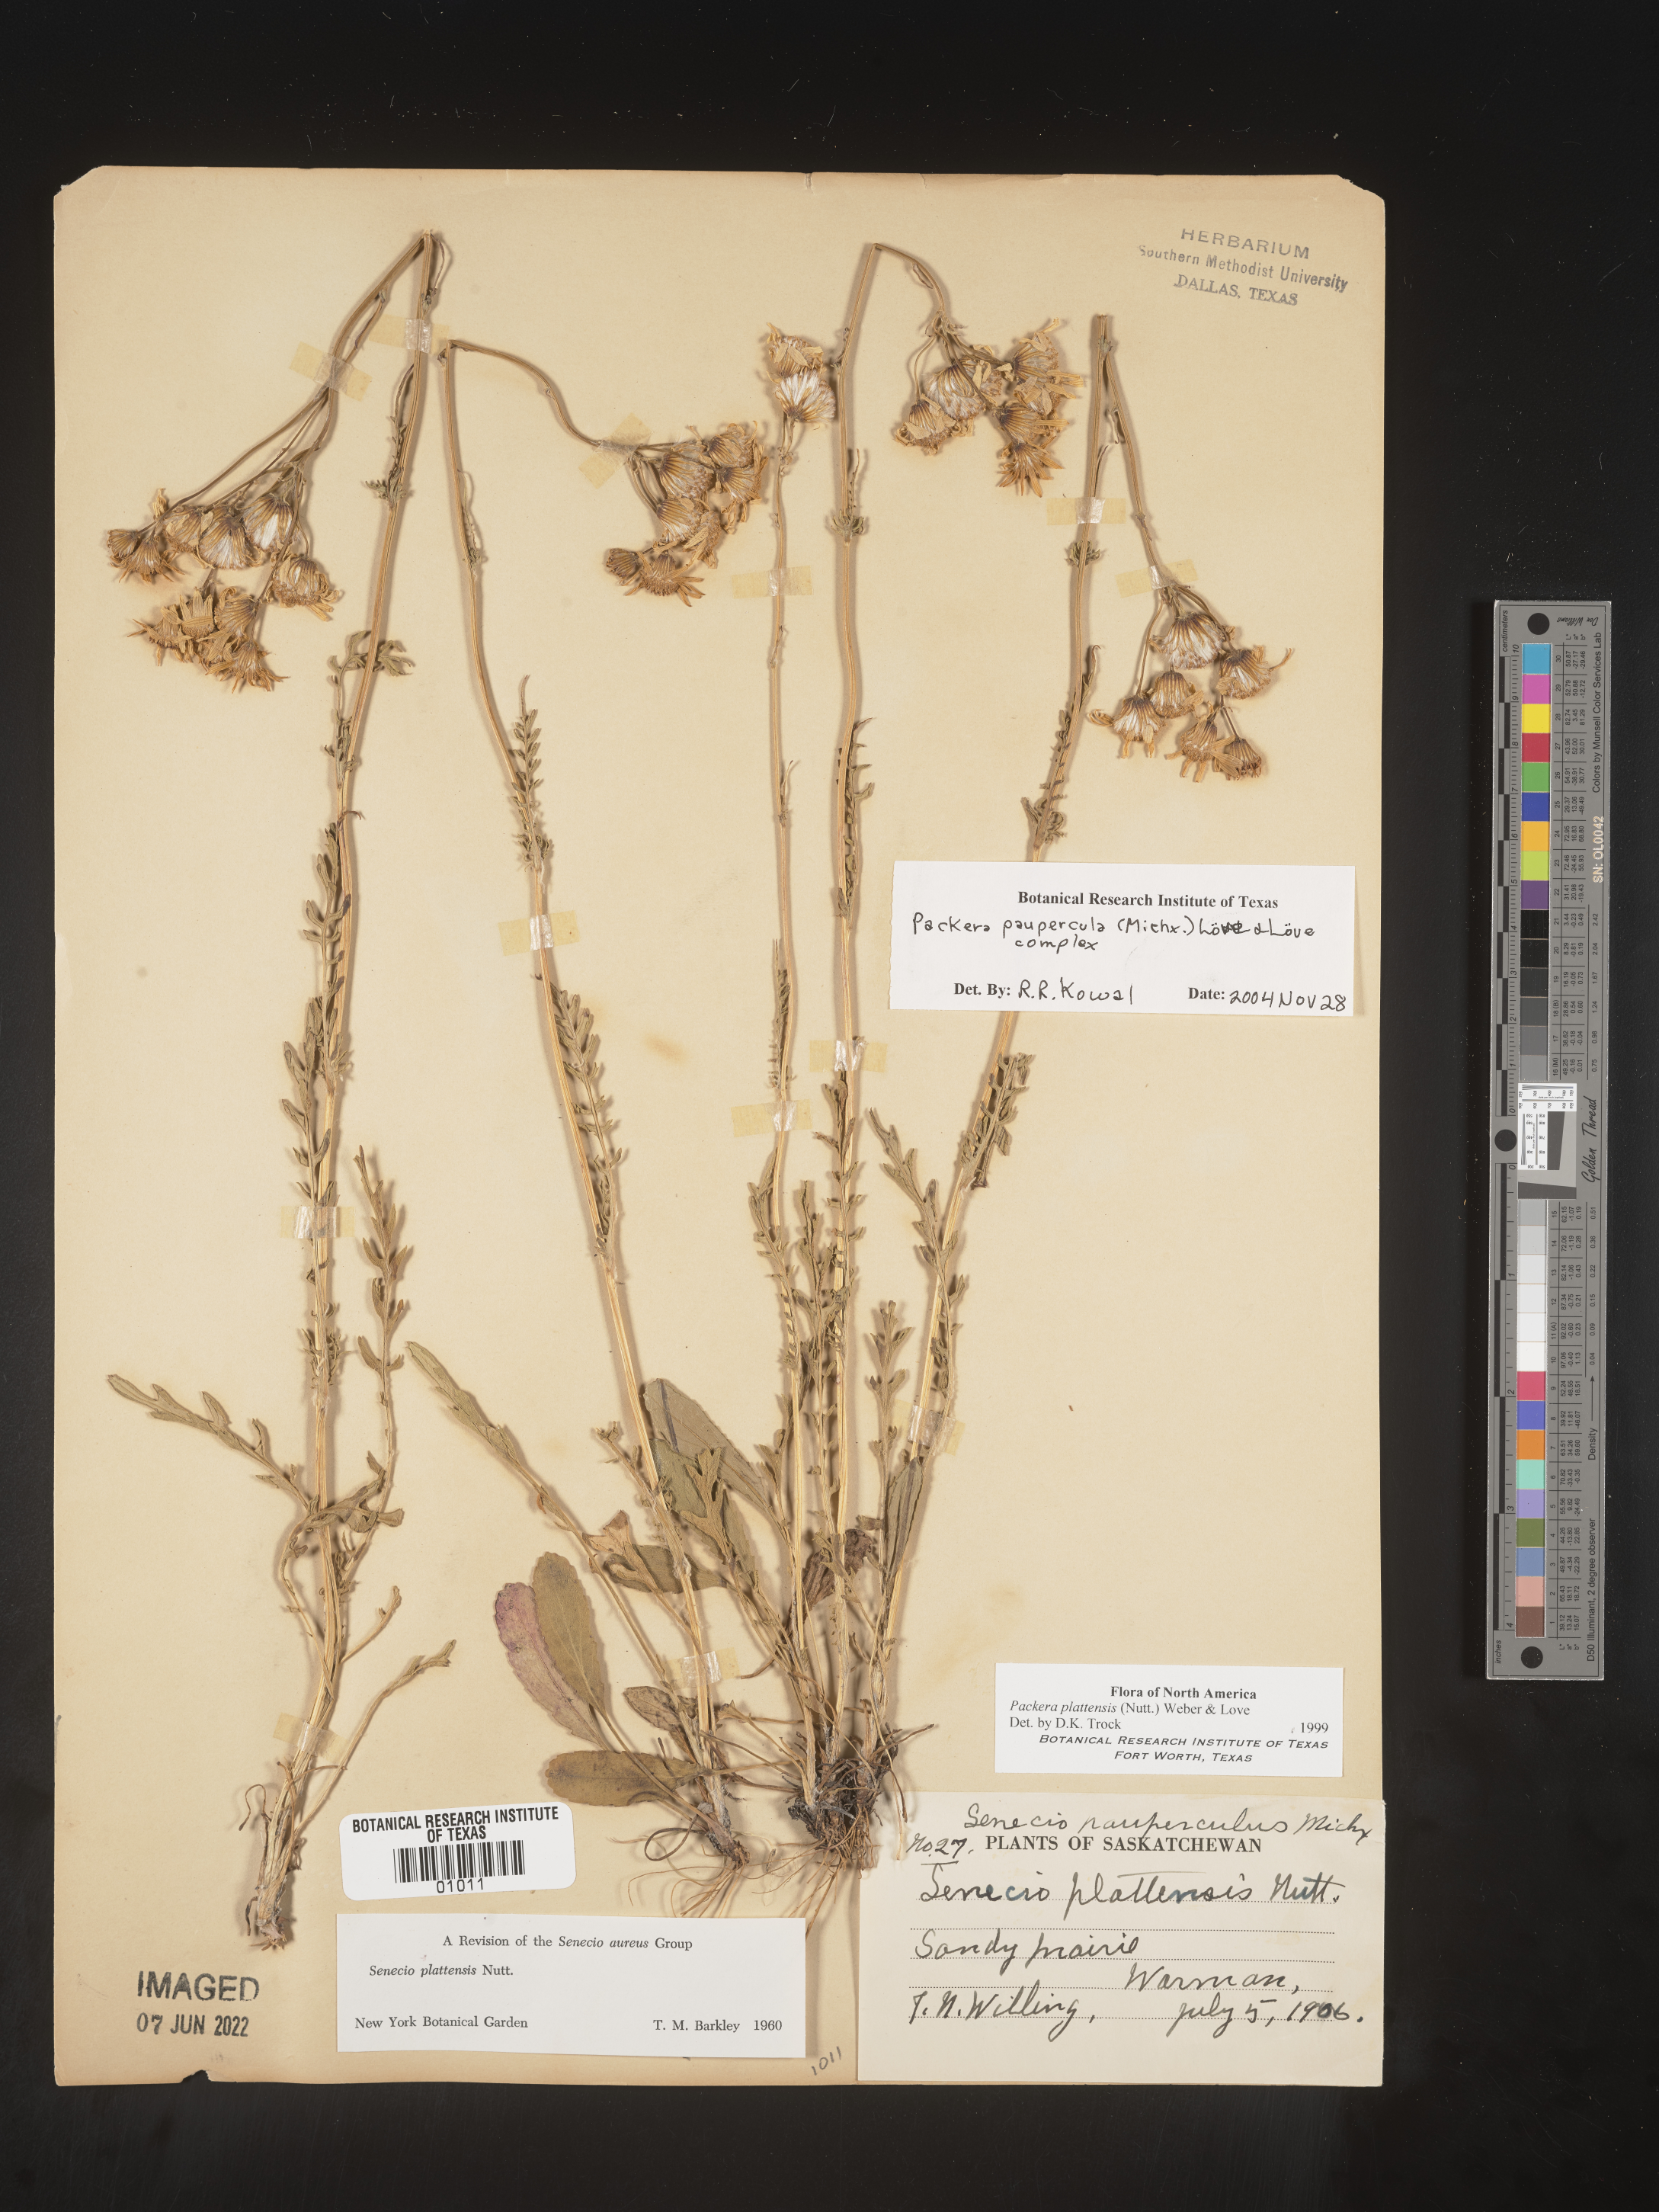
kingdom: Plantae
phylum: Tracheophyta
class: Magnoliopsida
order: Asterales
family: Asteraceae
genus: Packera
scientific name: Packera paupercula
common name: Balsam groundsel
